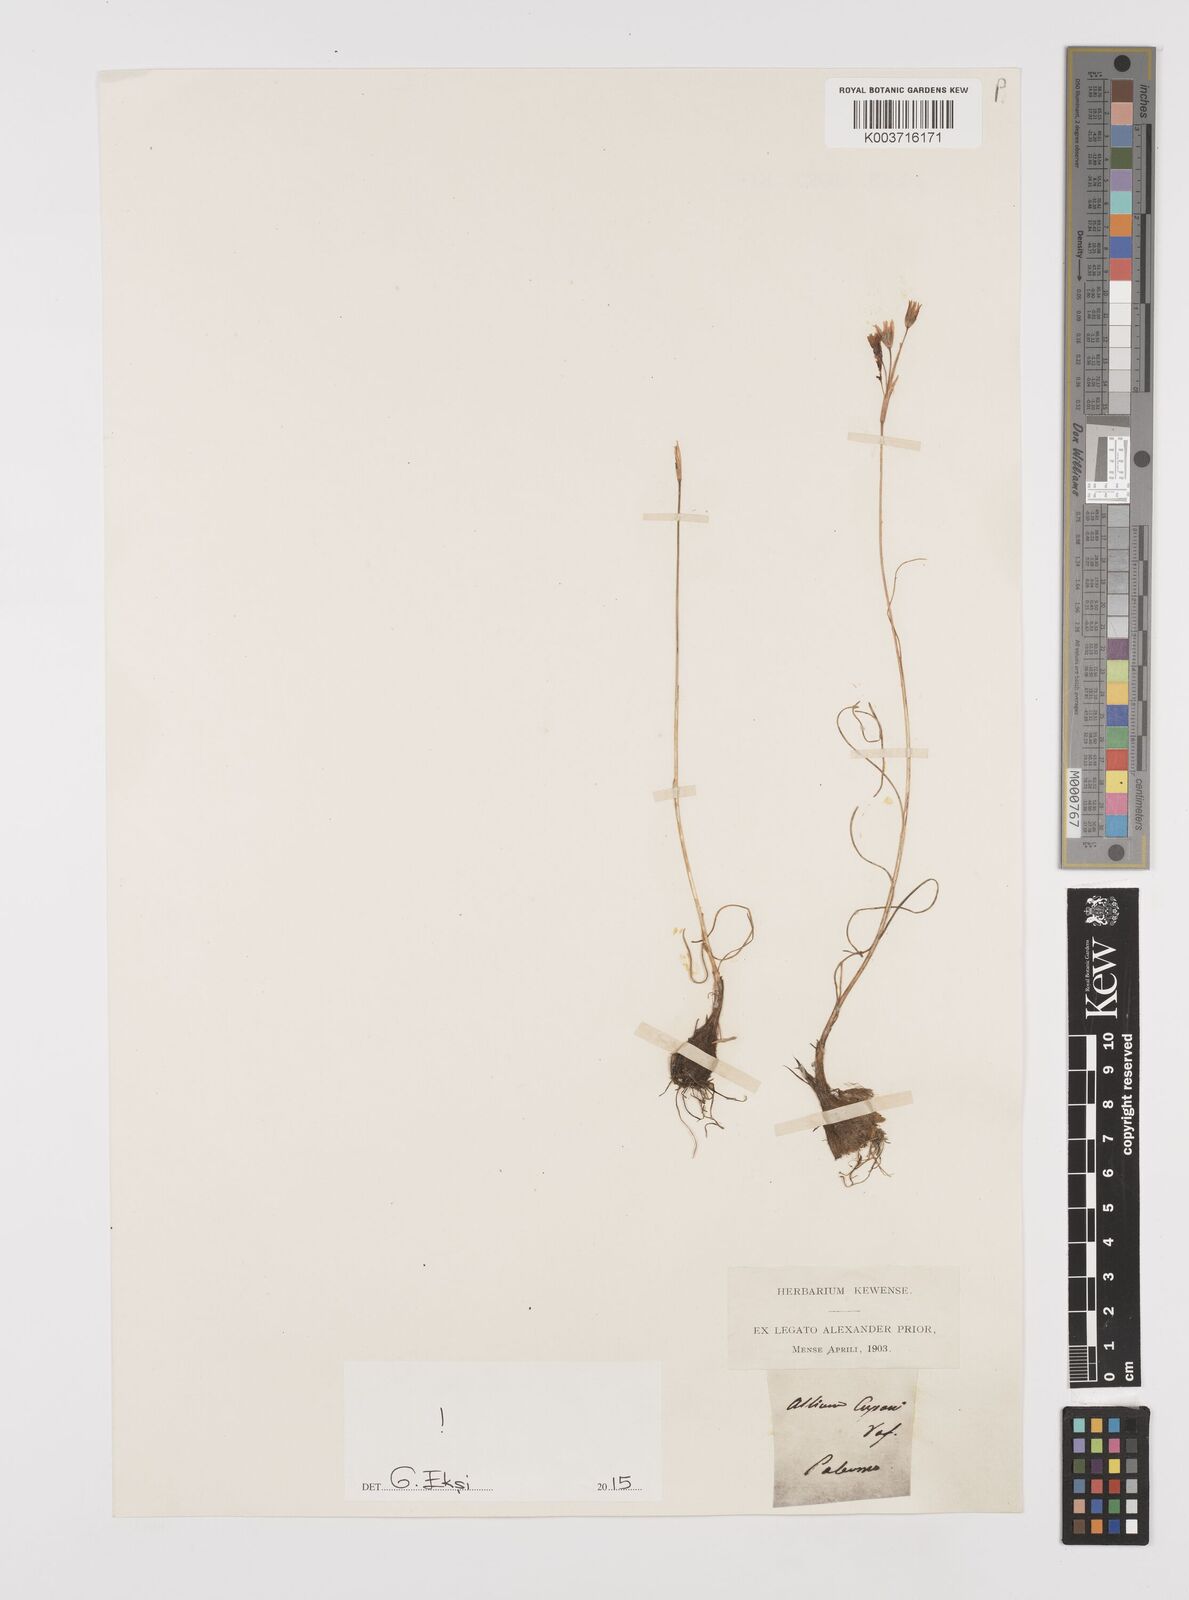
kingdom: Plantae
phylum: Tracheophyta
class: Liliopsida
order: Asparagales
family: Amaryllidaceae
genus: Allium
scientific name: Allium cupani
